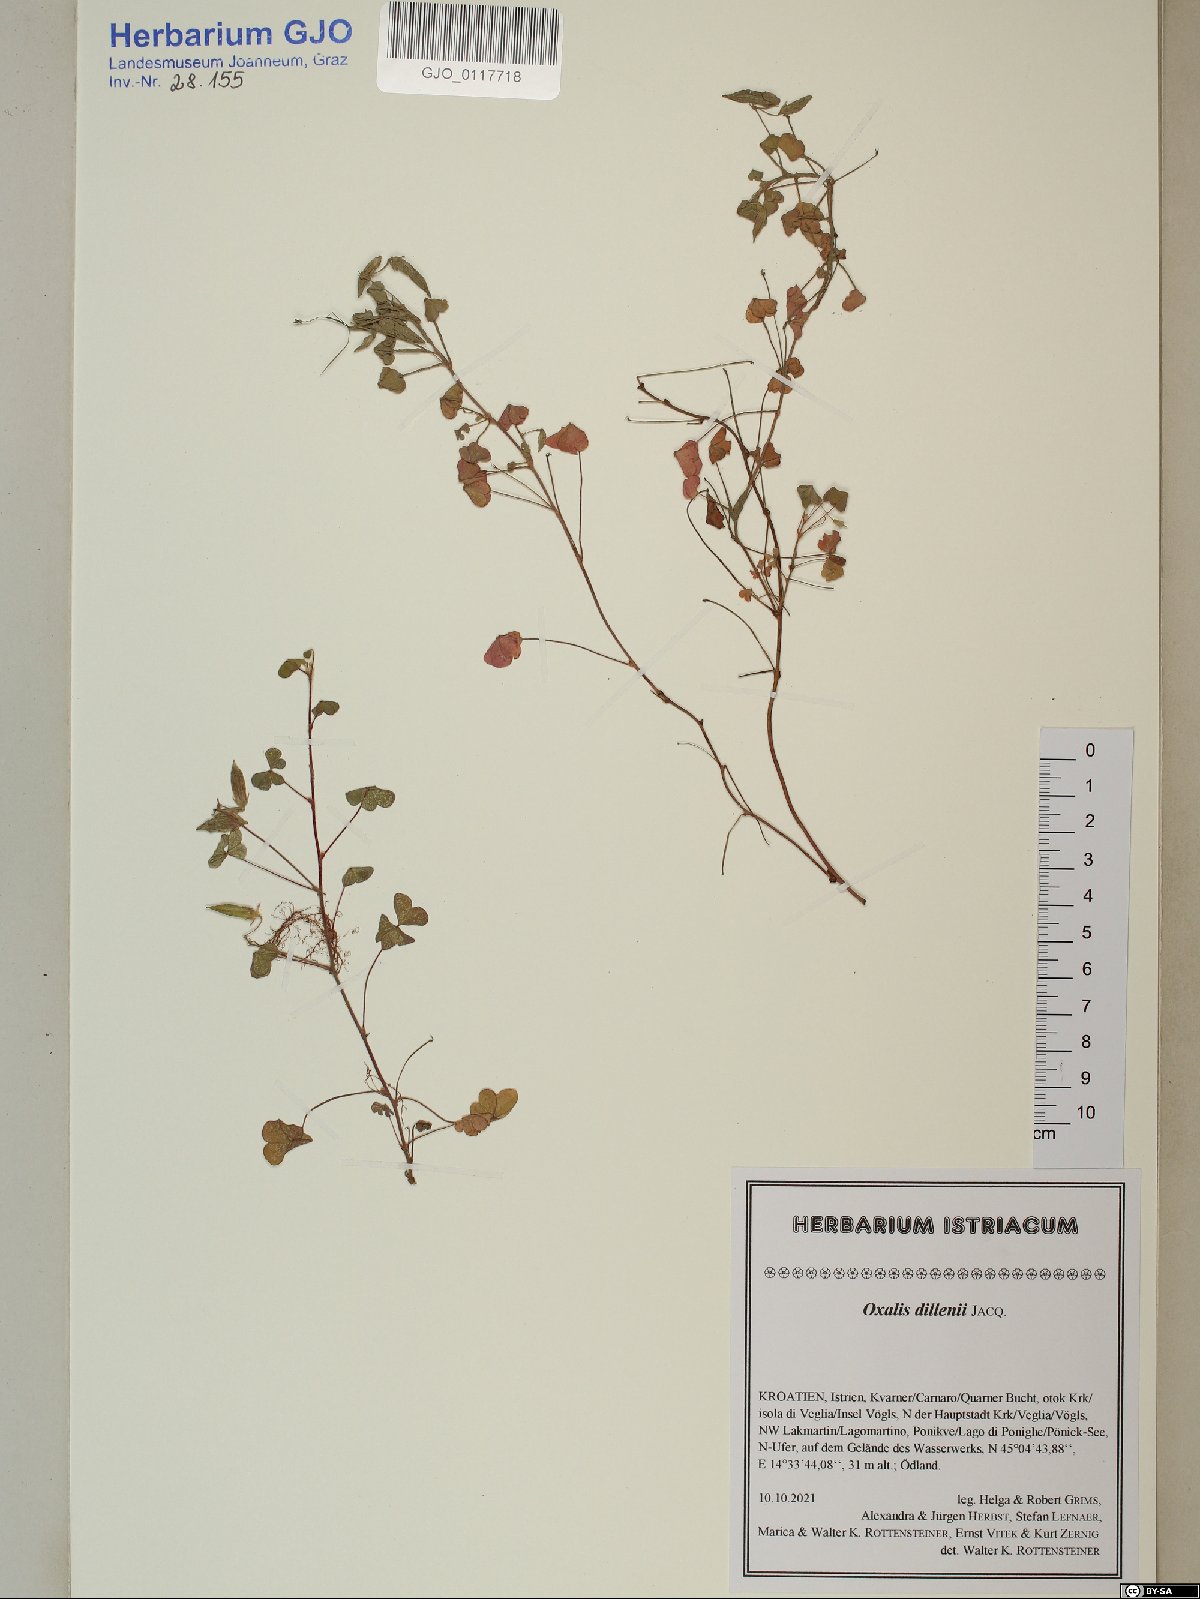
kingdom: Plantae
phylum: Tracheophyta
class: Magnoliopsida
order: Oxalidales
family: Oxalidaceae
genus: Oxalis
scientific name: Oxalis dillenii
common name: Sussex yellow-sorrel
